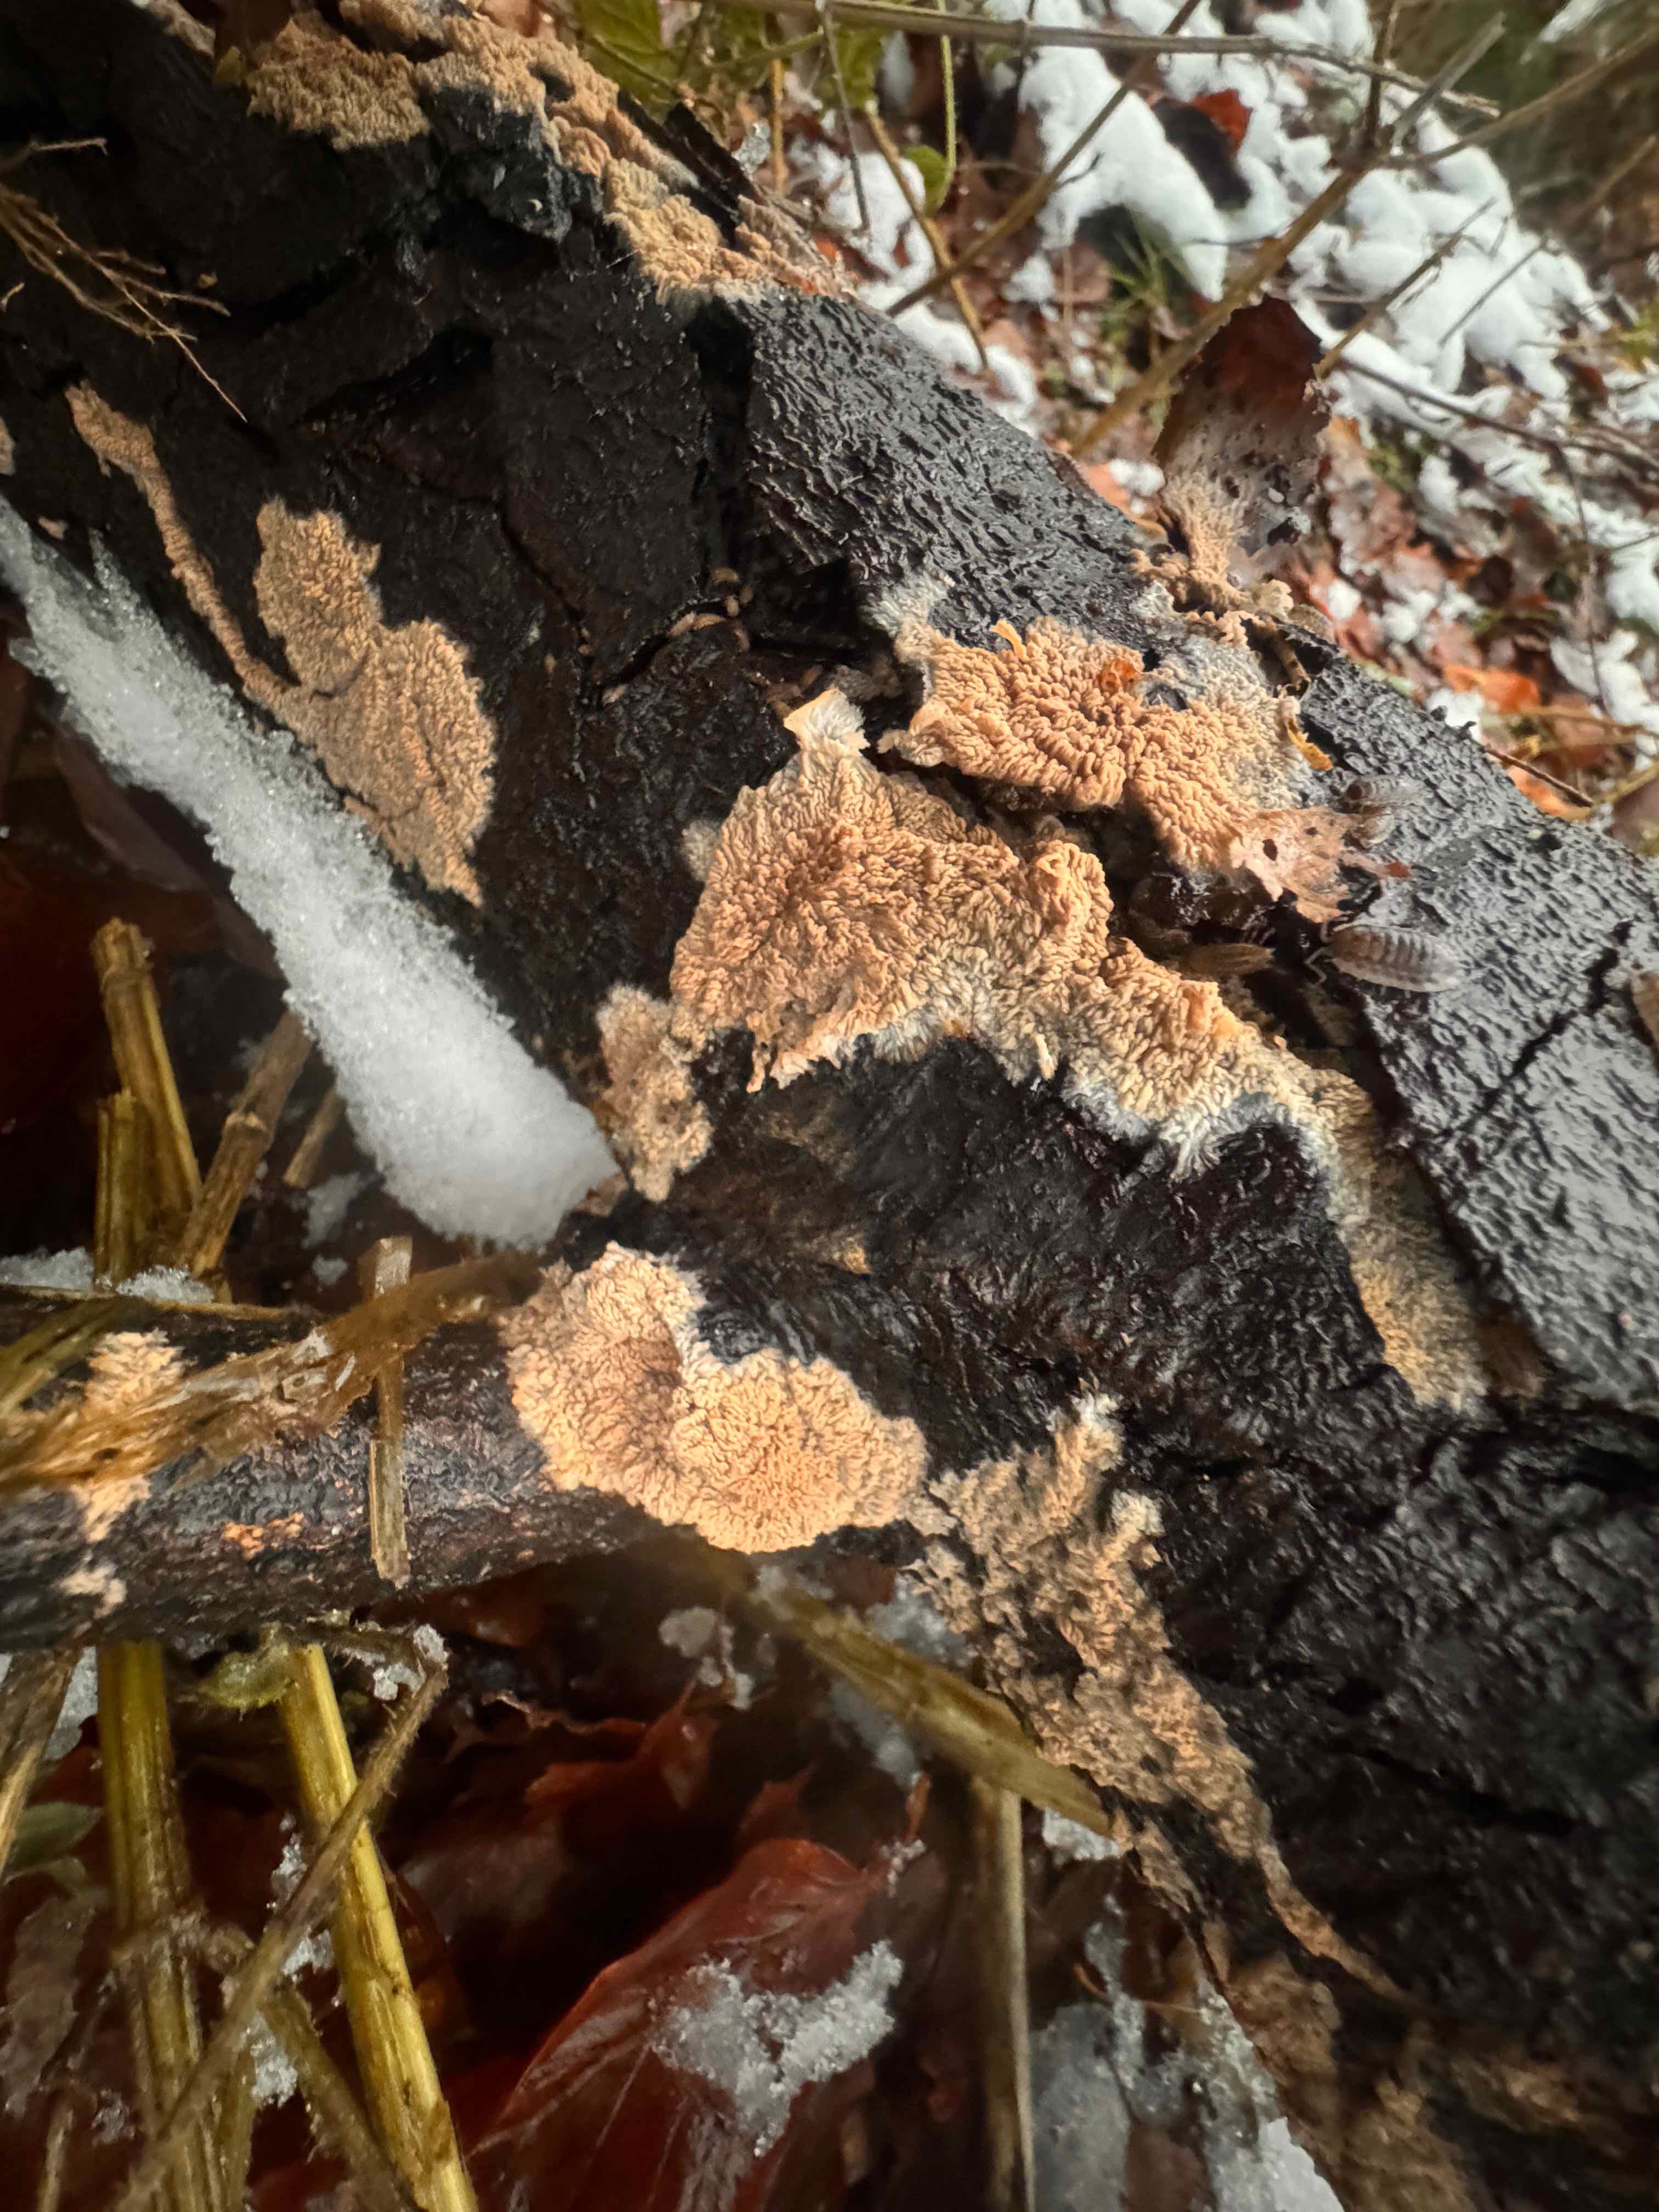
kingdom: Fungi
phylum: Basidiomycota
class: Agaricomycetes
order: Polyporales
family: Meruliaceae
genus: Phlebia
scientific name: Phlebia radiata
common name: stråle-åresvamp
